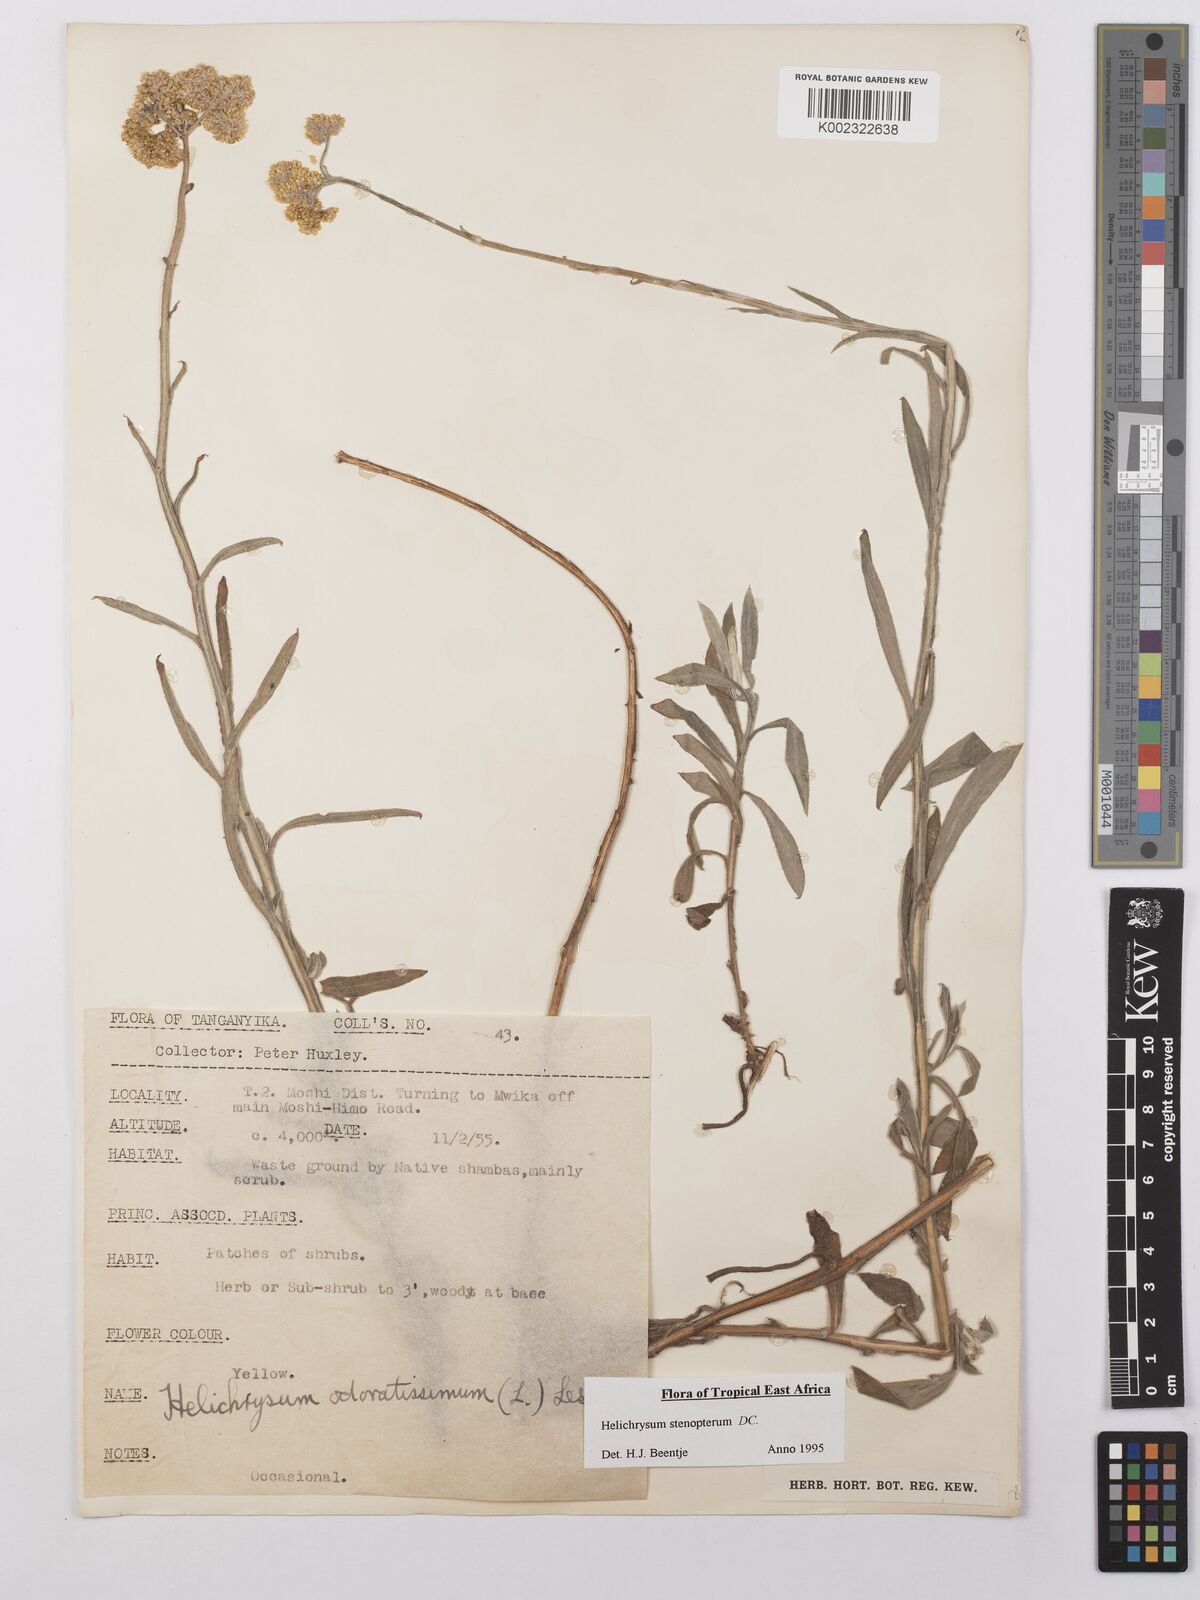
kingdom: Plantae
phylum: Tracheophyta
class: Magnoliopsida
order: Asterales
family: Asteraceae
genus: Helichrysum
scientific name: Helichrysum stenopterum
